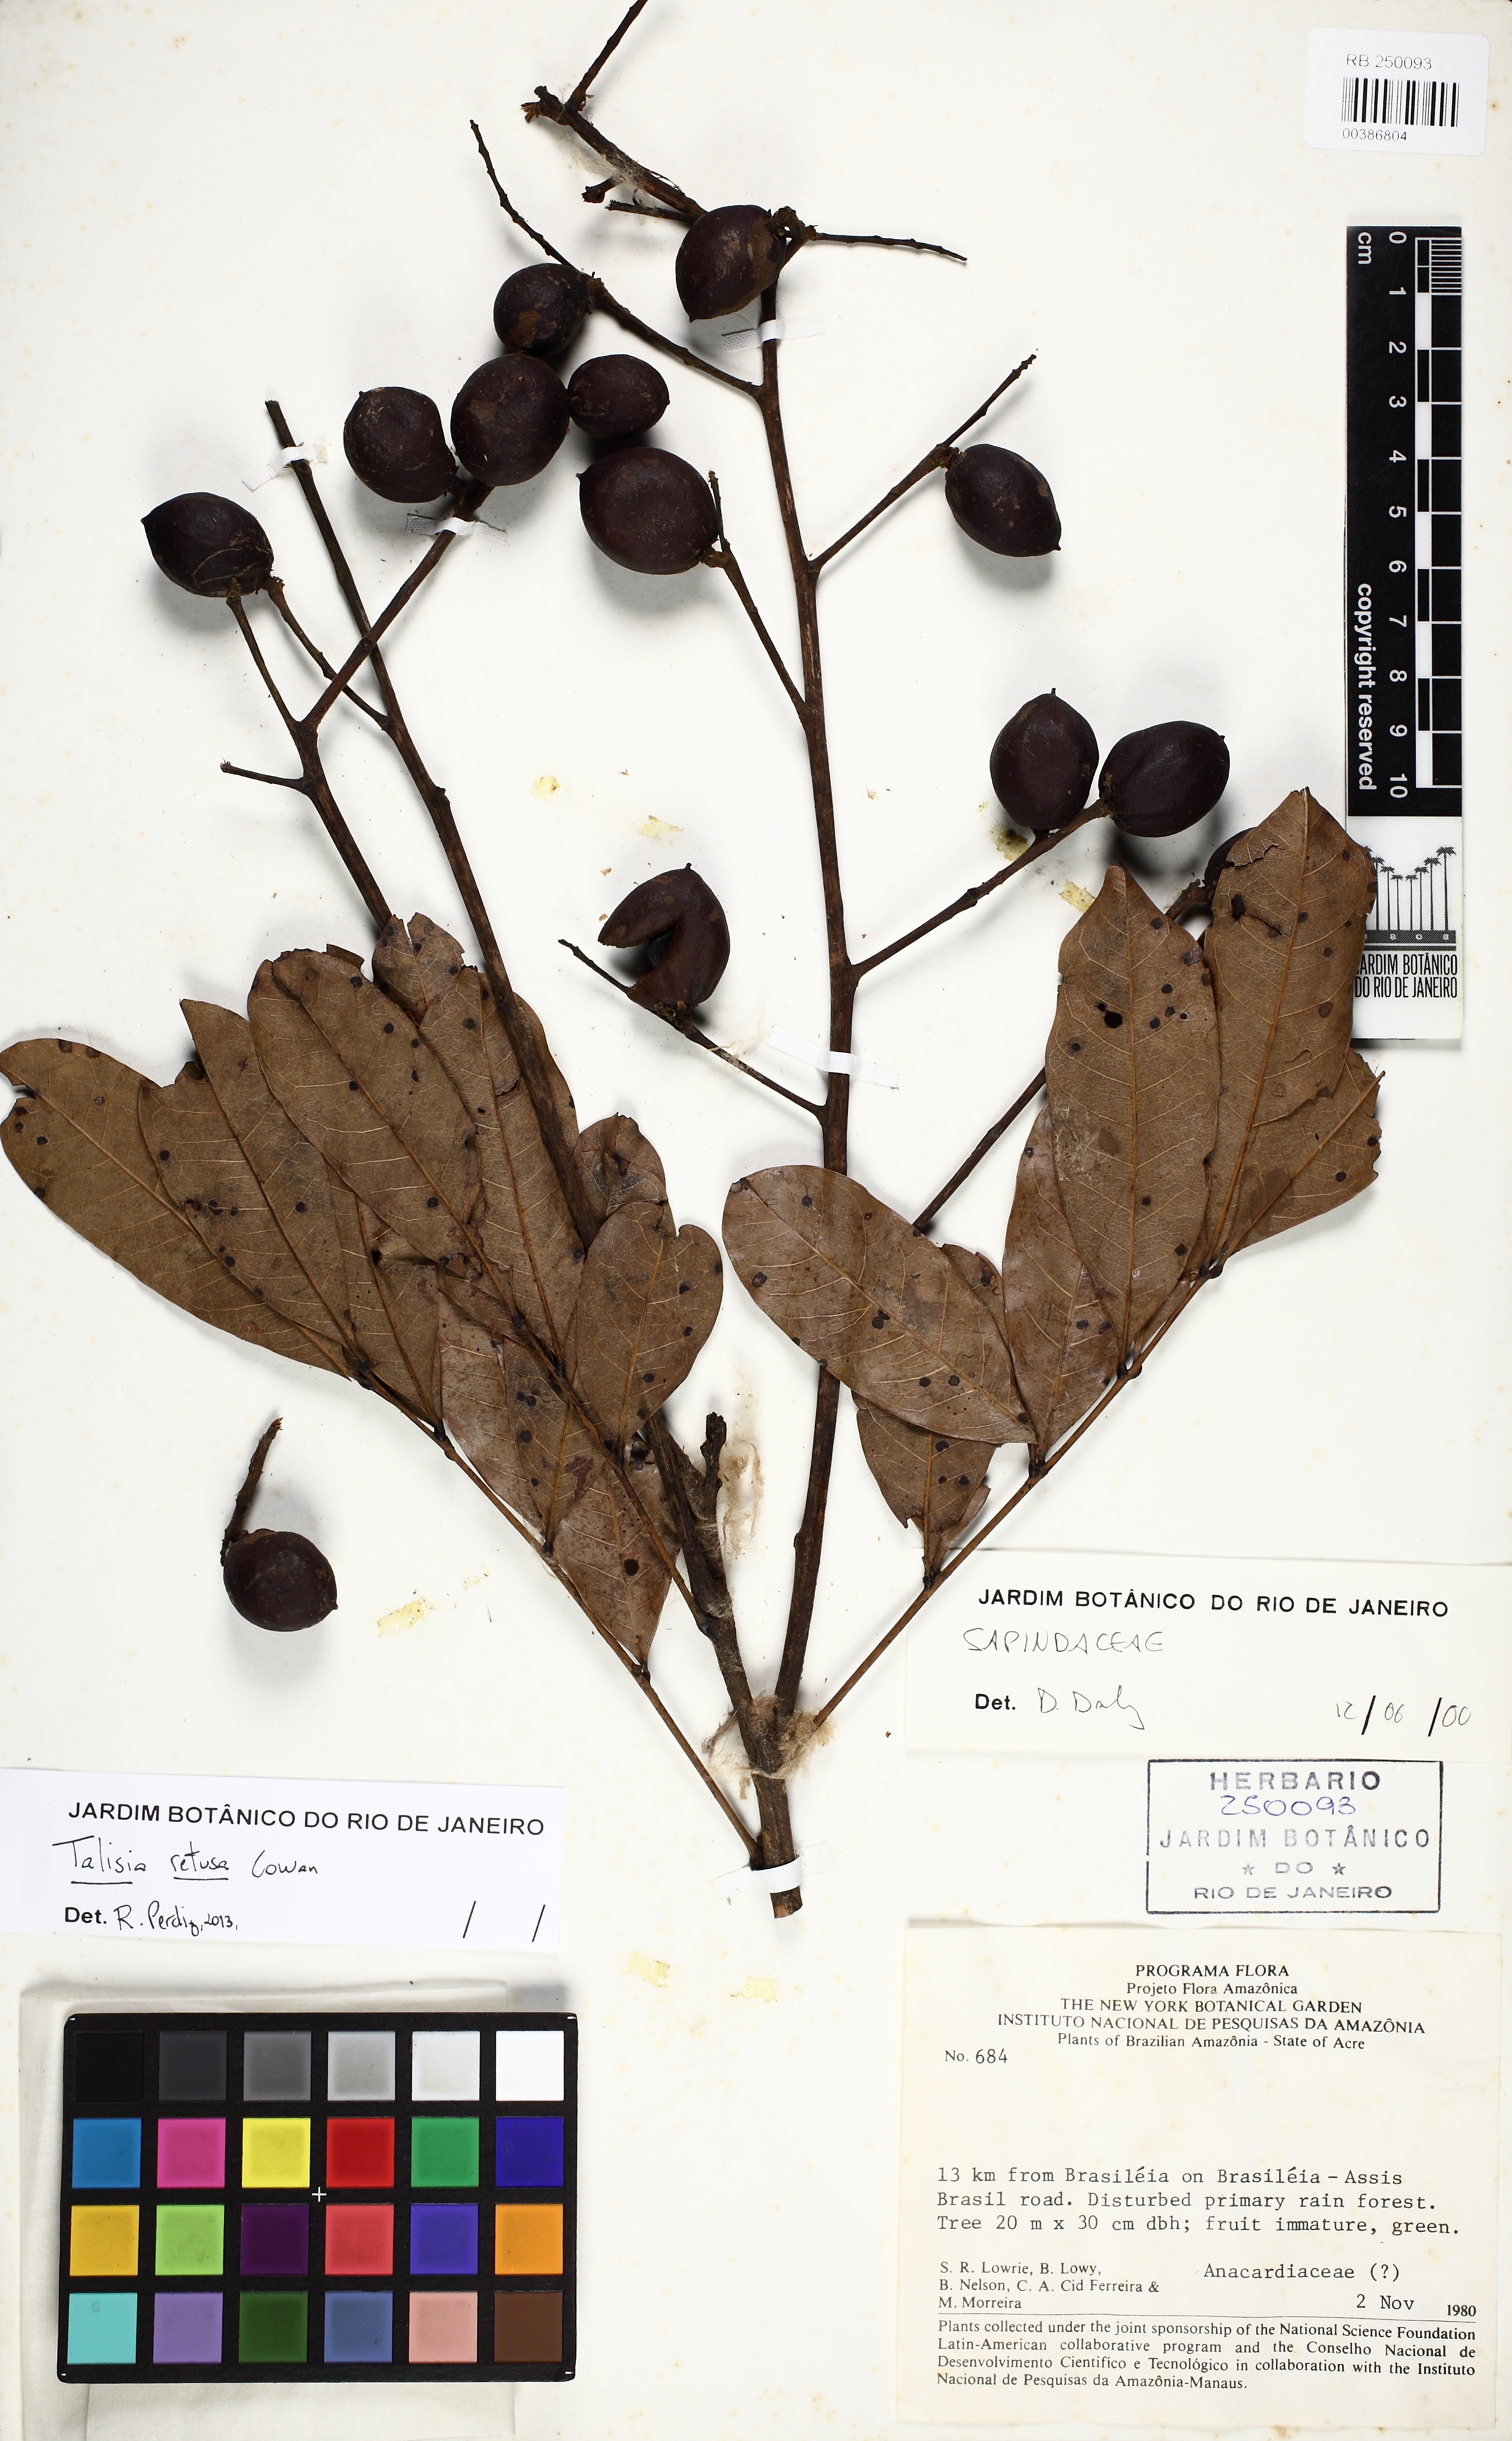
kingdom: Plantae
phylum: Tracheophyta
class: Magnoliopsida
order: Sapindales
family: Sapindaceae
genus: Talisia
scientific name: Talisia retusa
